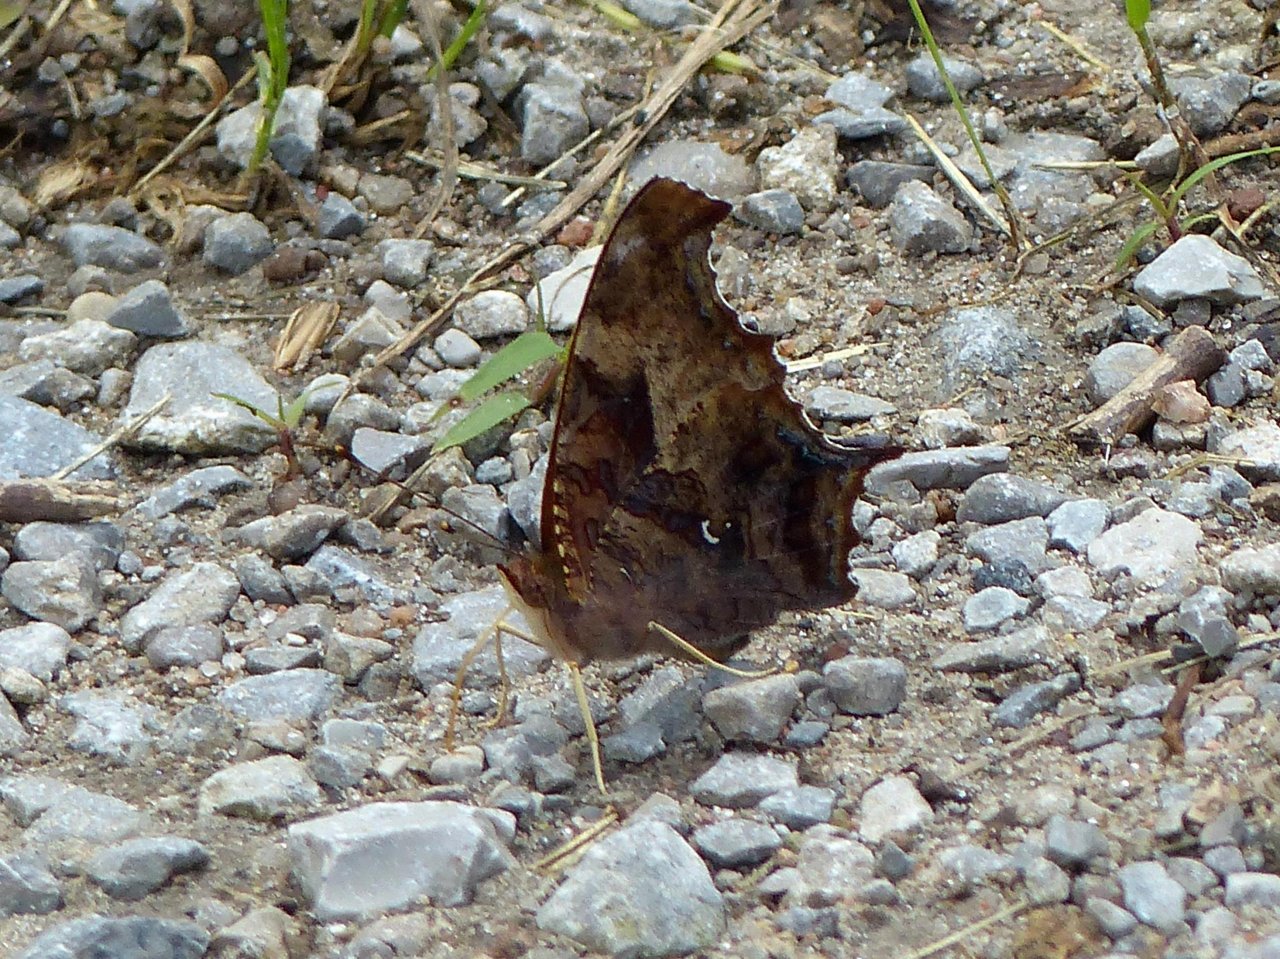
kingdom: Animalia
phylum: Arthropoda
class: Insecta
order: Lepidoptera
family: Nymphalidae
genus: Polygonia
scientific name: Polygonia interrogationis
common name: Question Mark
